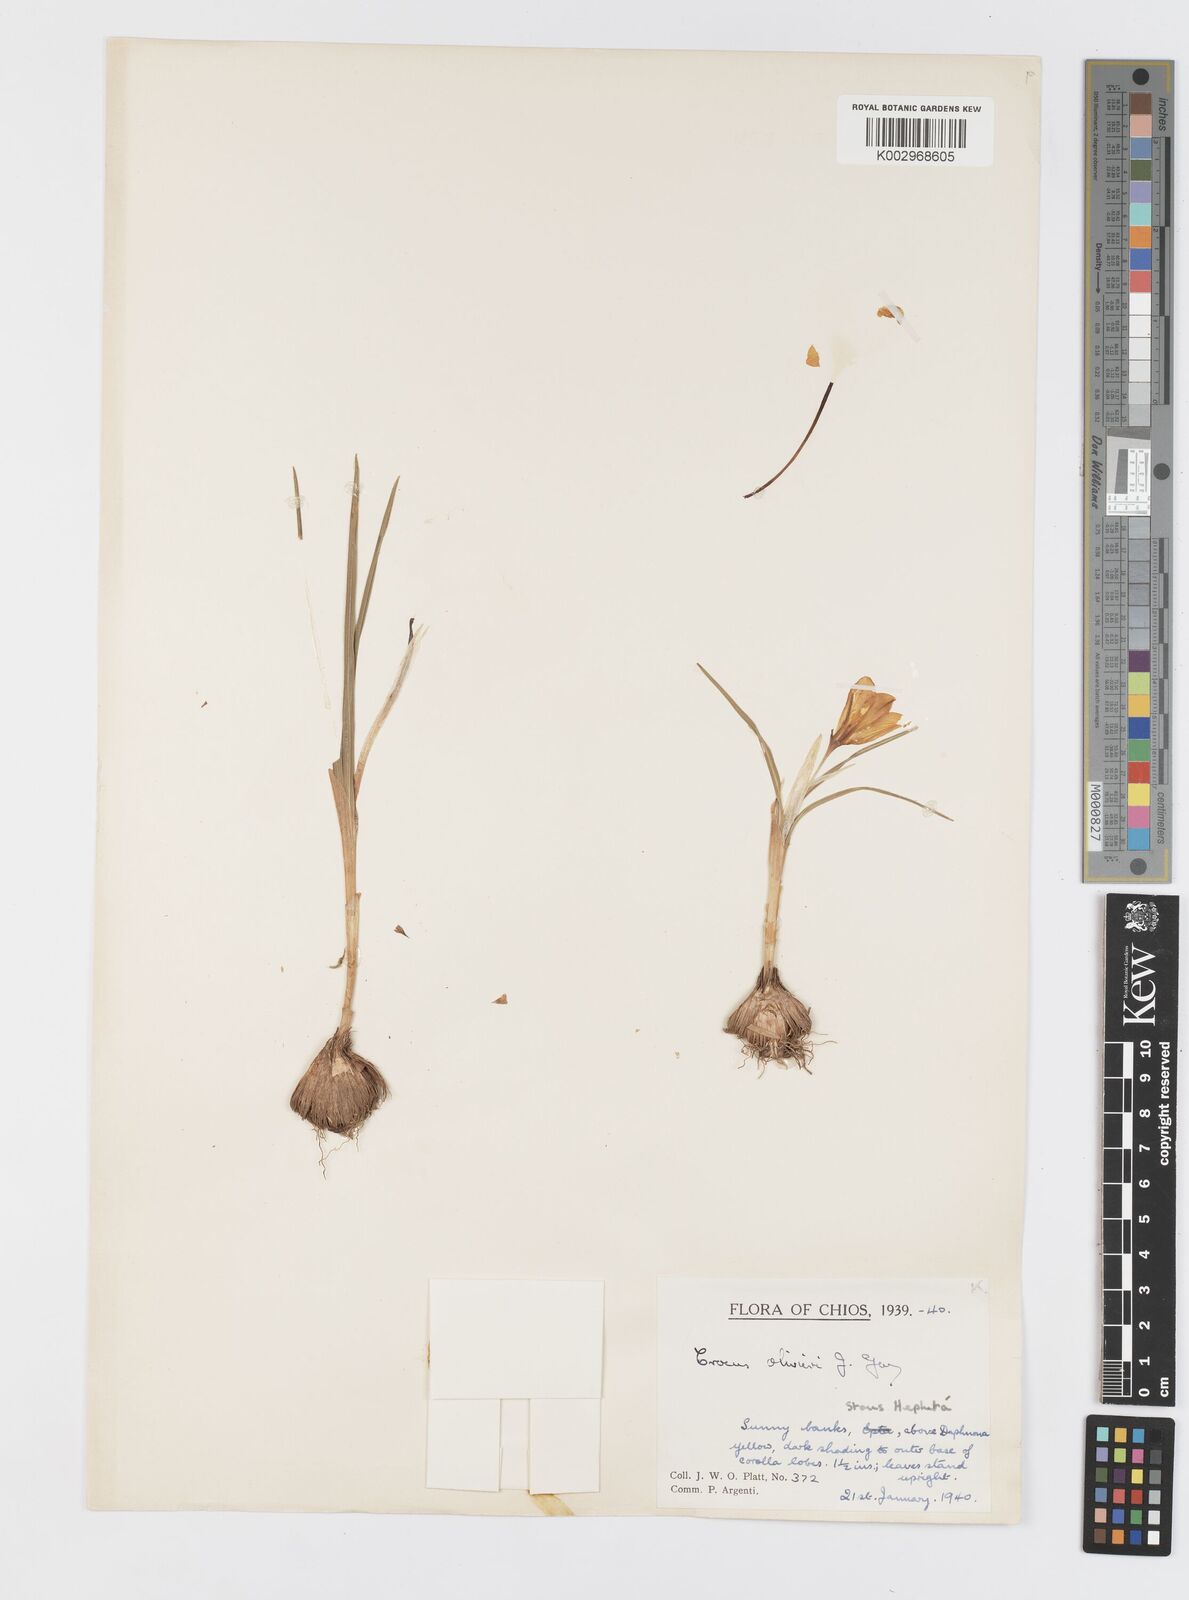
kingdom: Plantae
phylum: Tracheophyta
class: Liliopsida
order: Asparagales
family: Iridaceae
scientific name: Iridaceae
